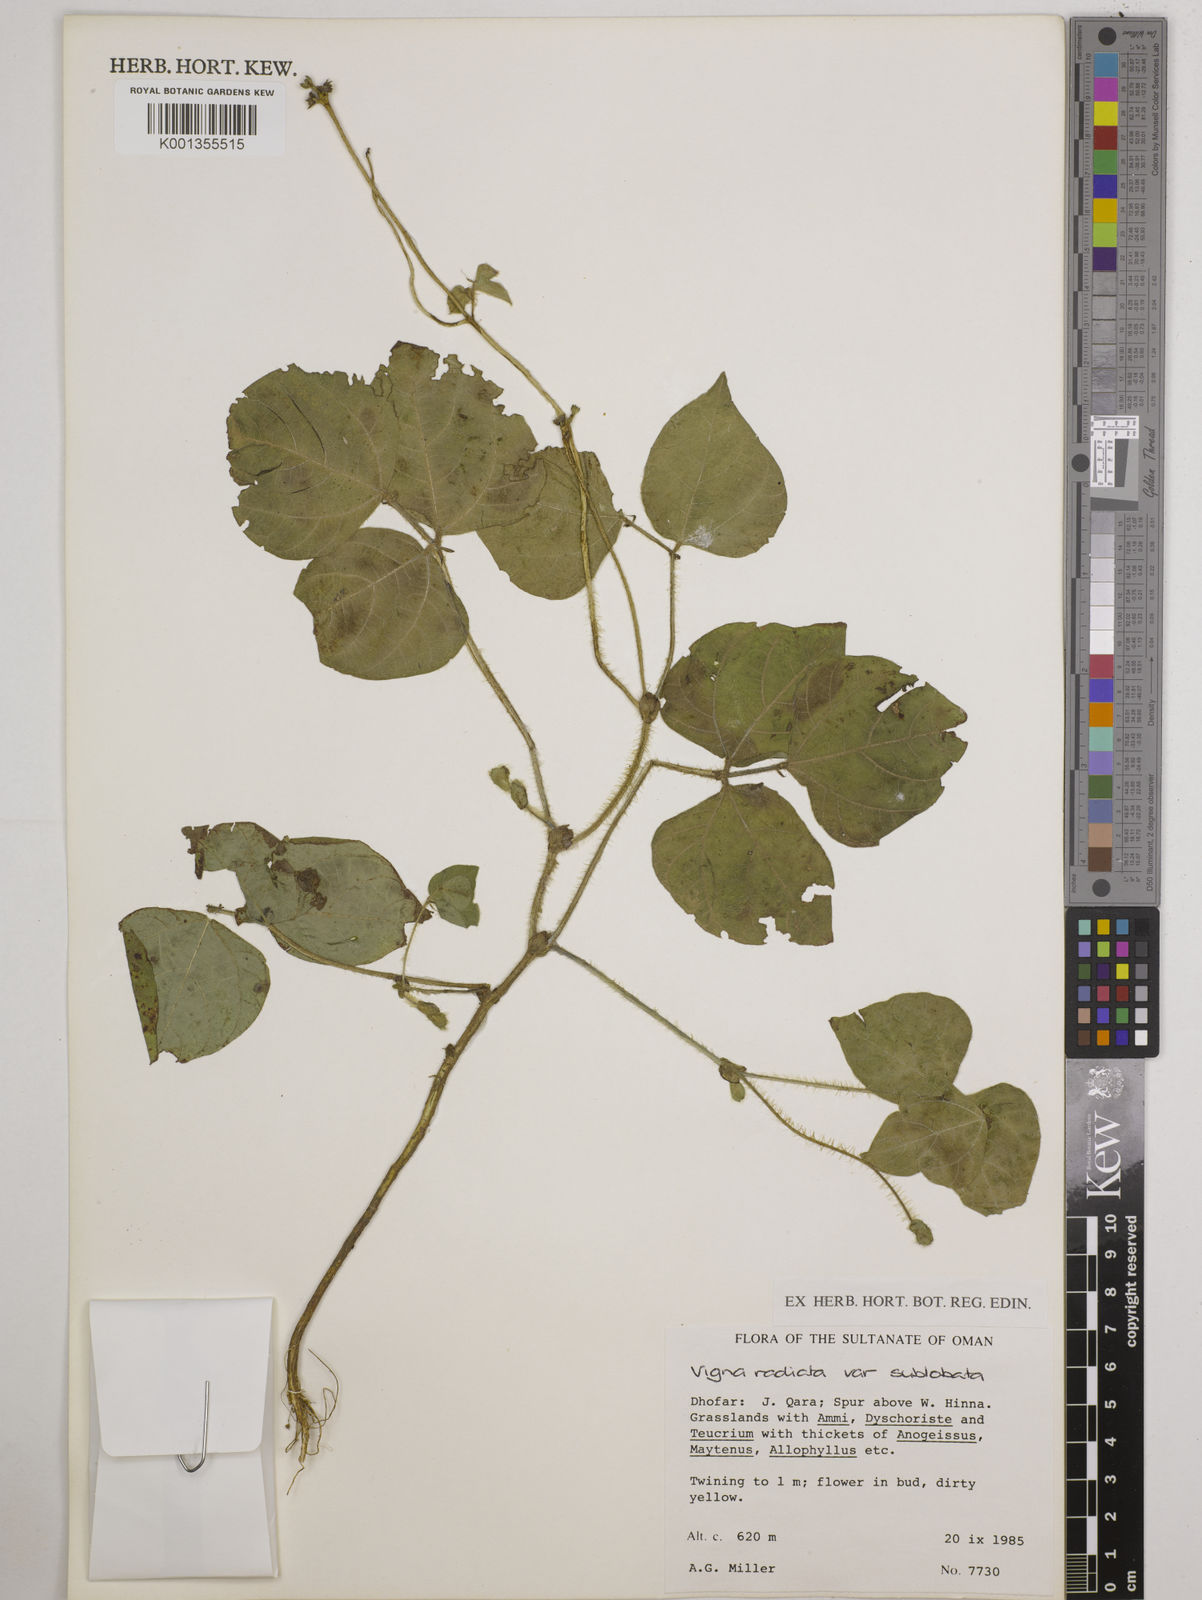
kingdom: Plantae
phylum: Tracheophyta
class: Magnoliopsida
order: Fabales
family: Fabaceae
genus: Vigna
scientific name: Vigna radiata
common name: Mung-bean
